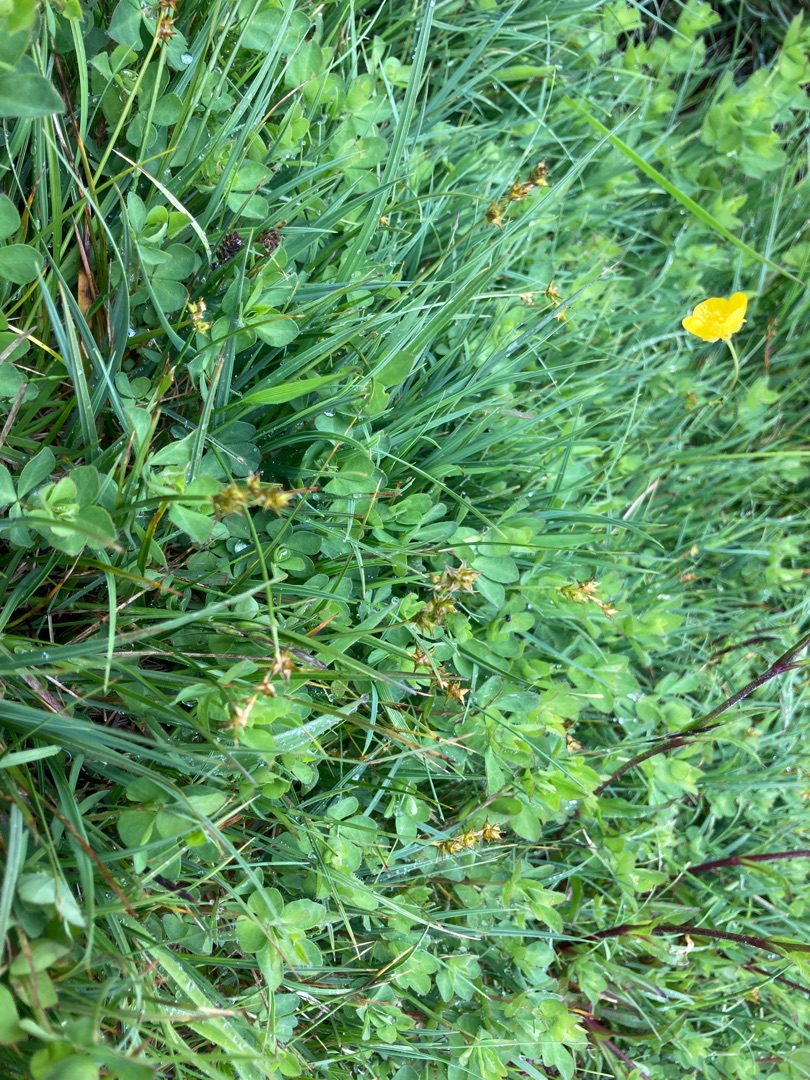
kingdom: Plantae
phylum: Tracheophyta
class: Liliopsida
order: Poales
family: Cyperaceae
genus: Carex
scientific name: Carex echinata
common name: Stjerne-star
